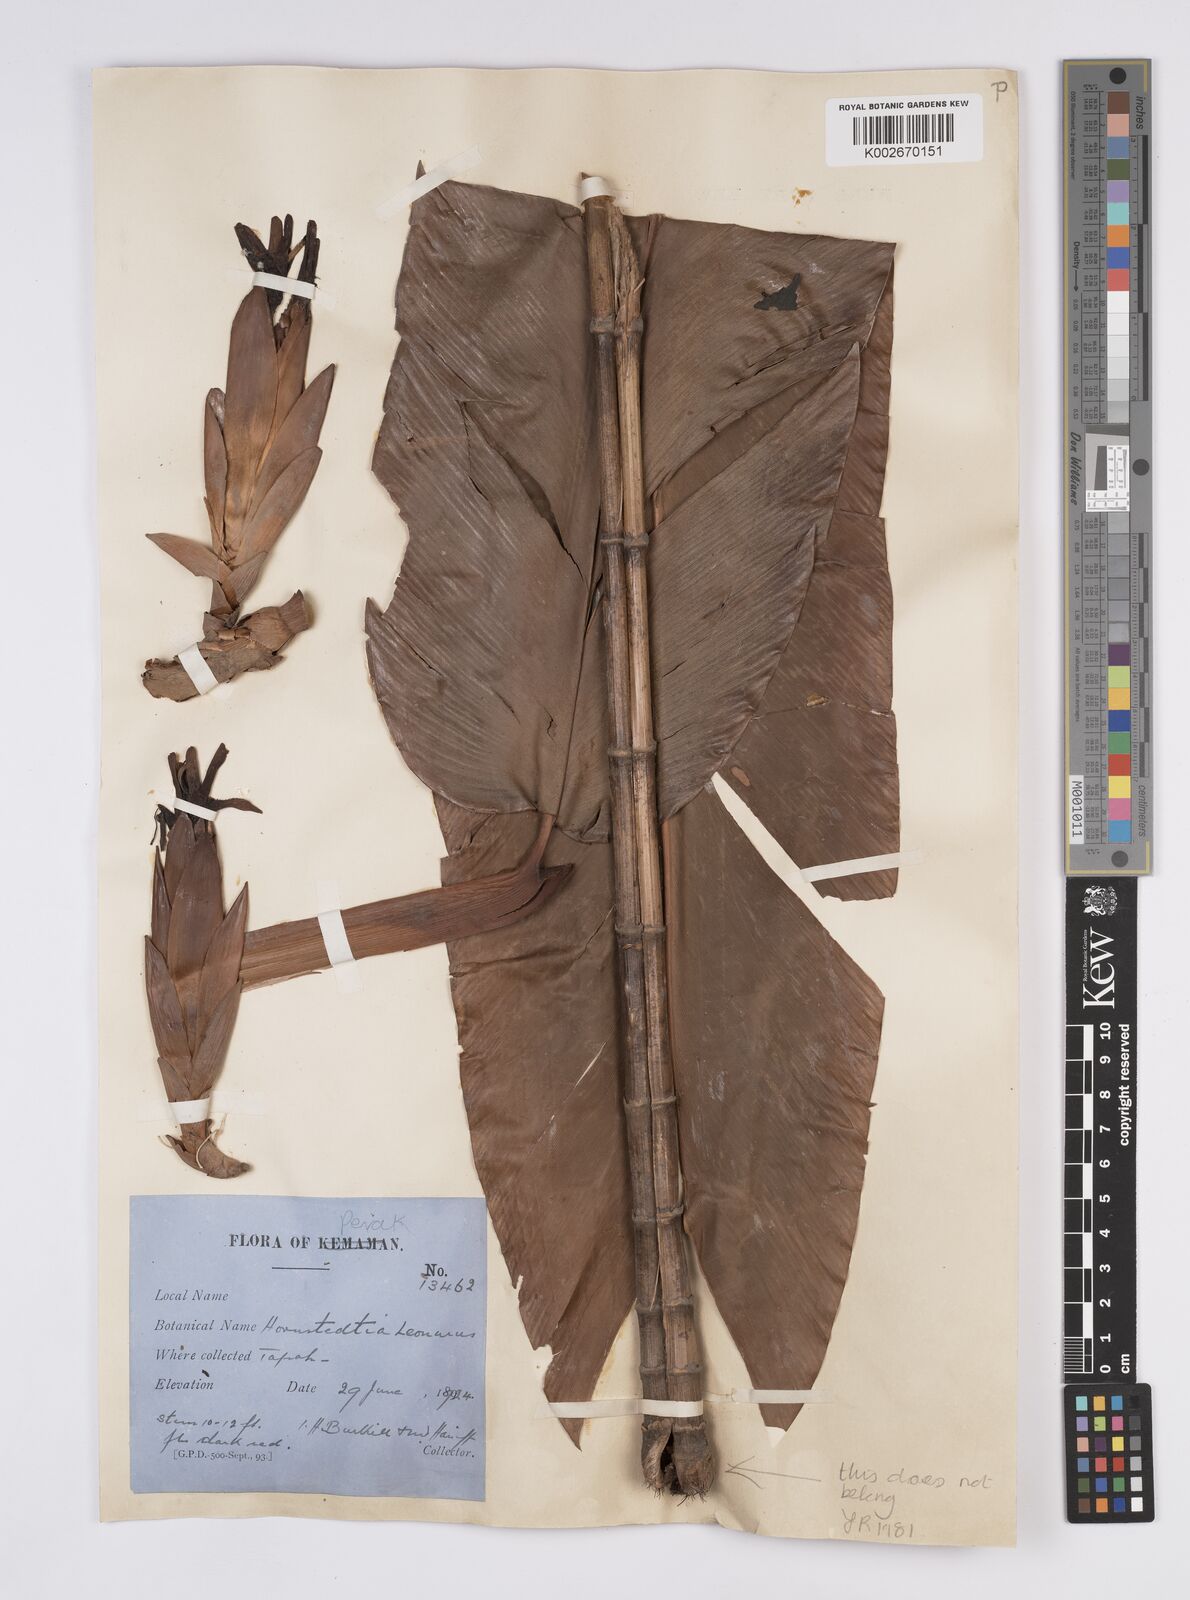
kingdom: Plantae
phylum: Tracheophyta
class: Liliopsida
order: Zingiberales
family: Zingiberaceae
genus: Hornstedtia
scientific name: Hornstedtia leonurus
